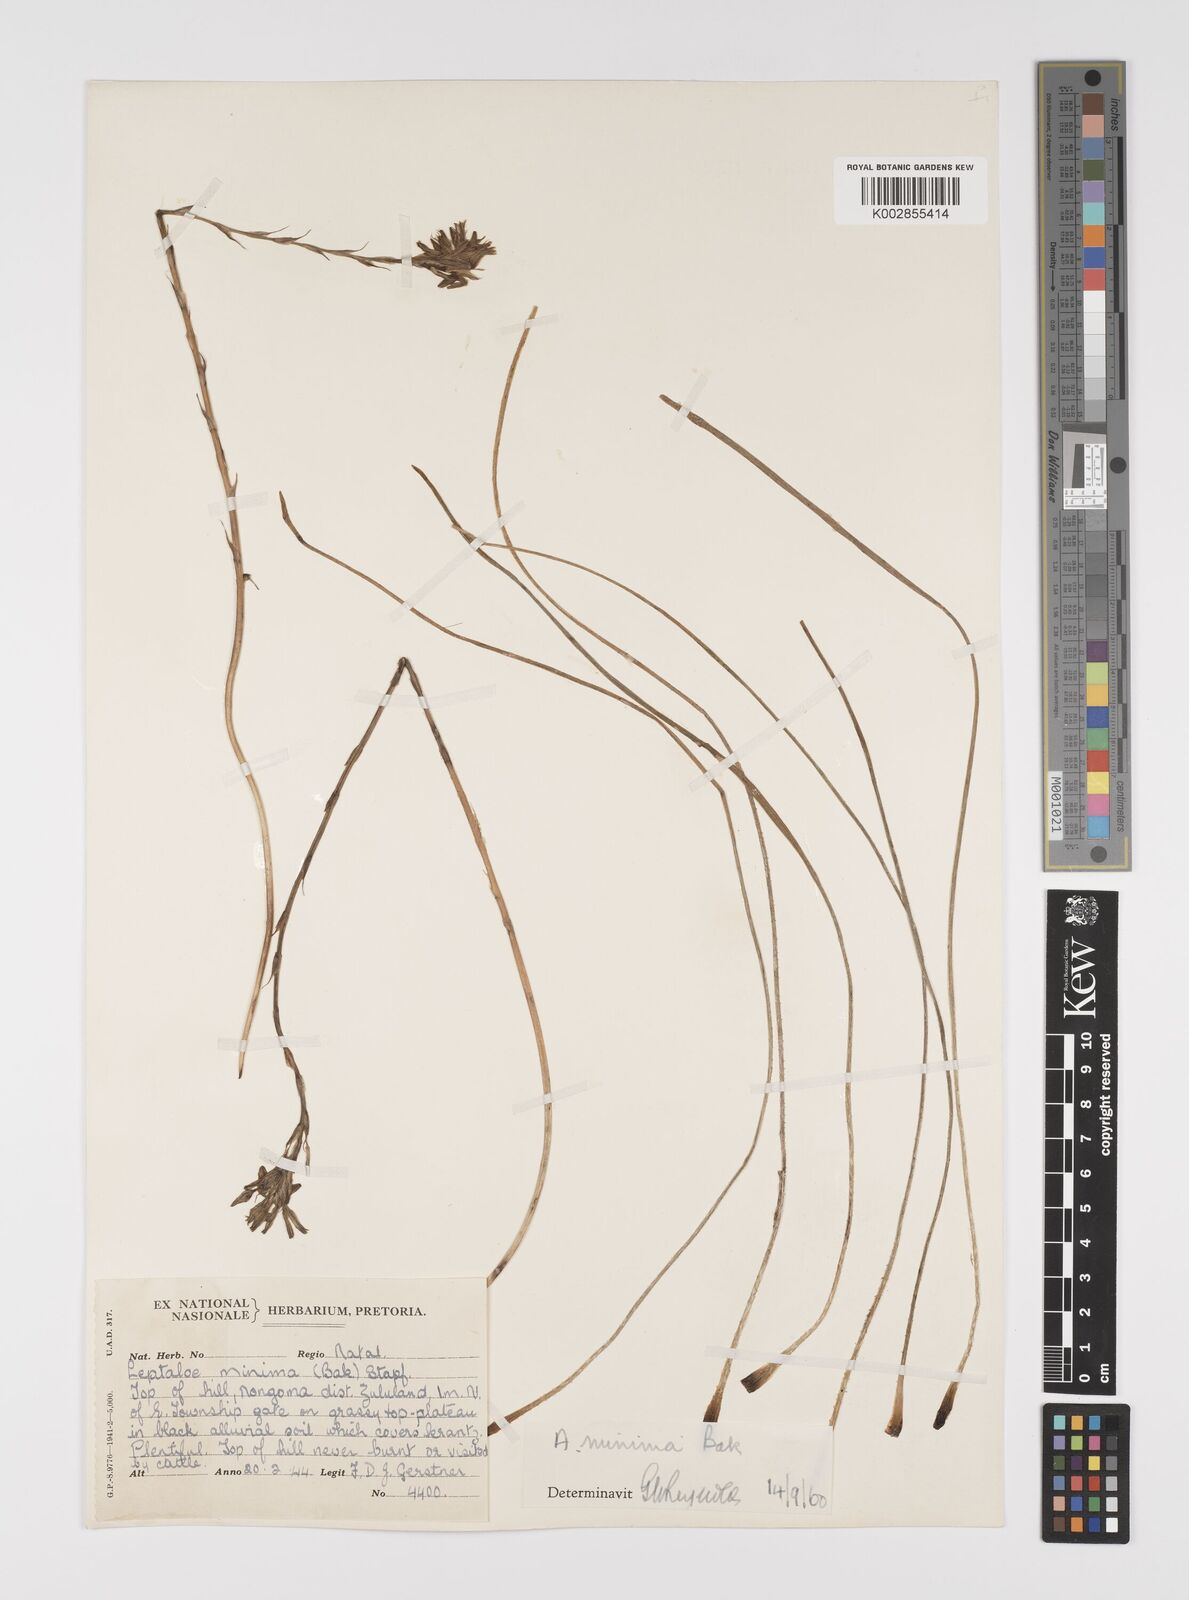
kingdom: Plantae
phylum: Tracheophyta
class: Liliopsida
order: Asparagales
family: Asphodelaceae
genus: Aloe
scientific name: Aloe minima
